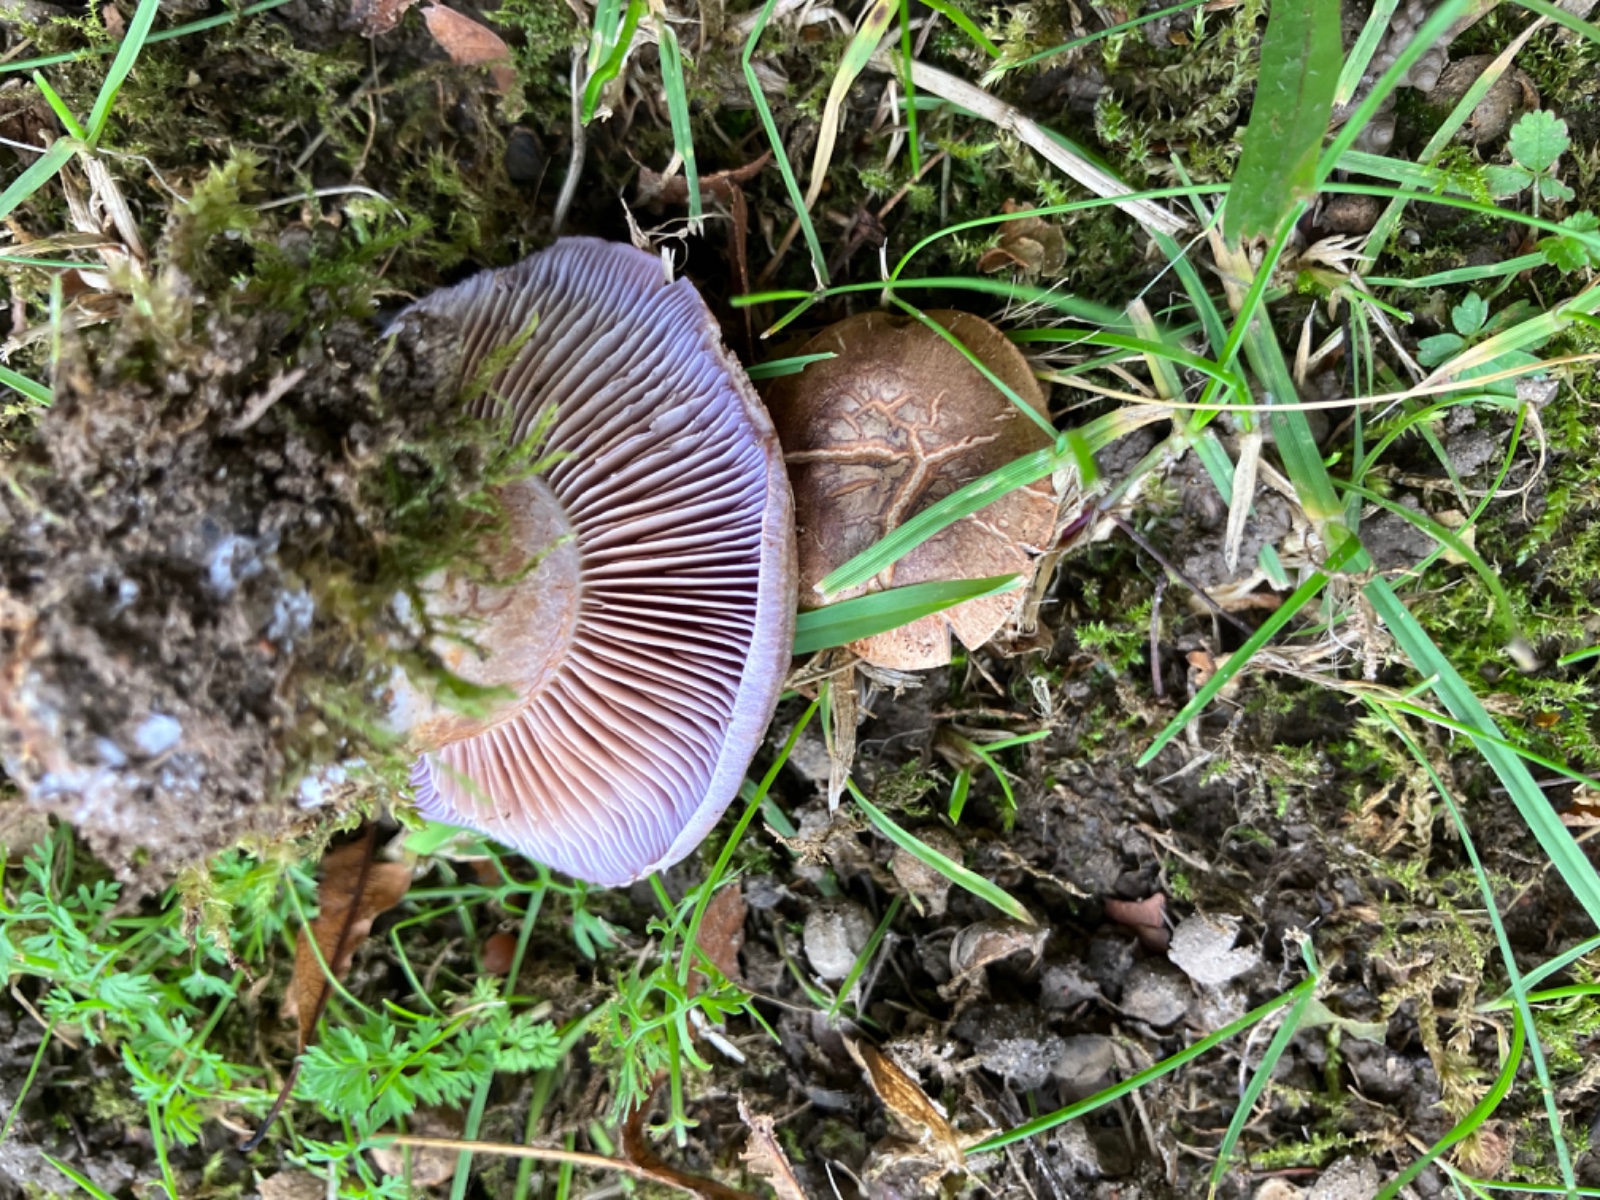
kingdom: Fungi
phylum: Basidiomycota
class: Agaricomycetes
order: Agaricales
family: Cortinariaceae
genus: Phlegmacium
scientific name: Phlegmacium pseudodaulnoyae
